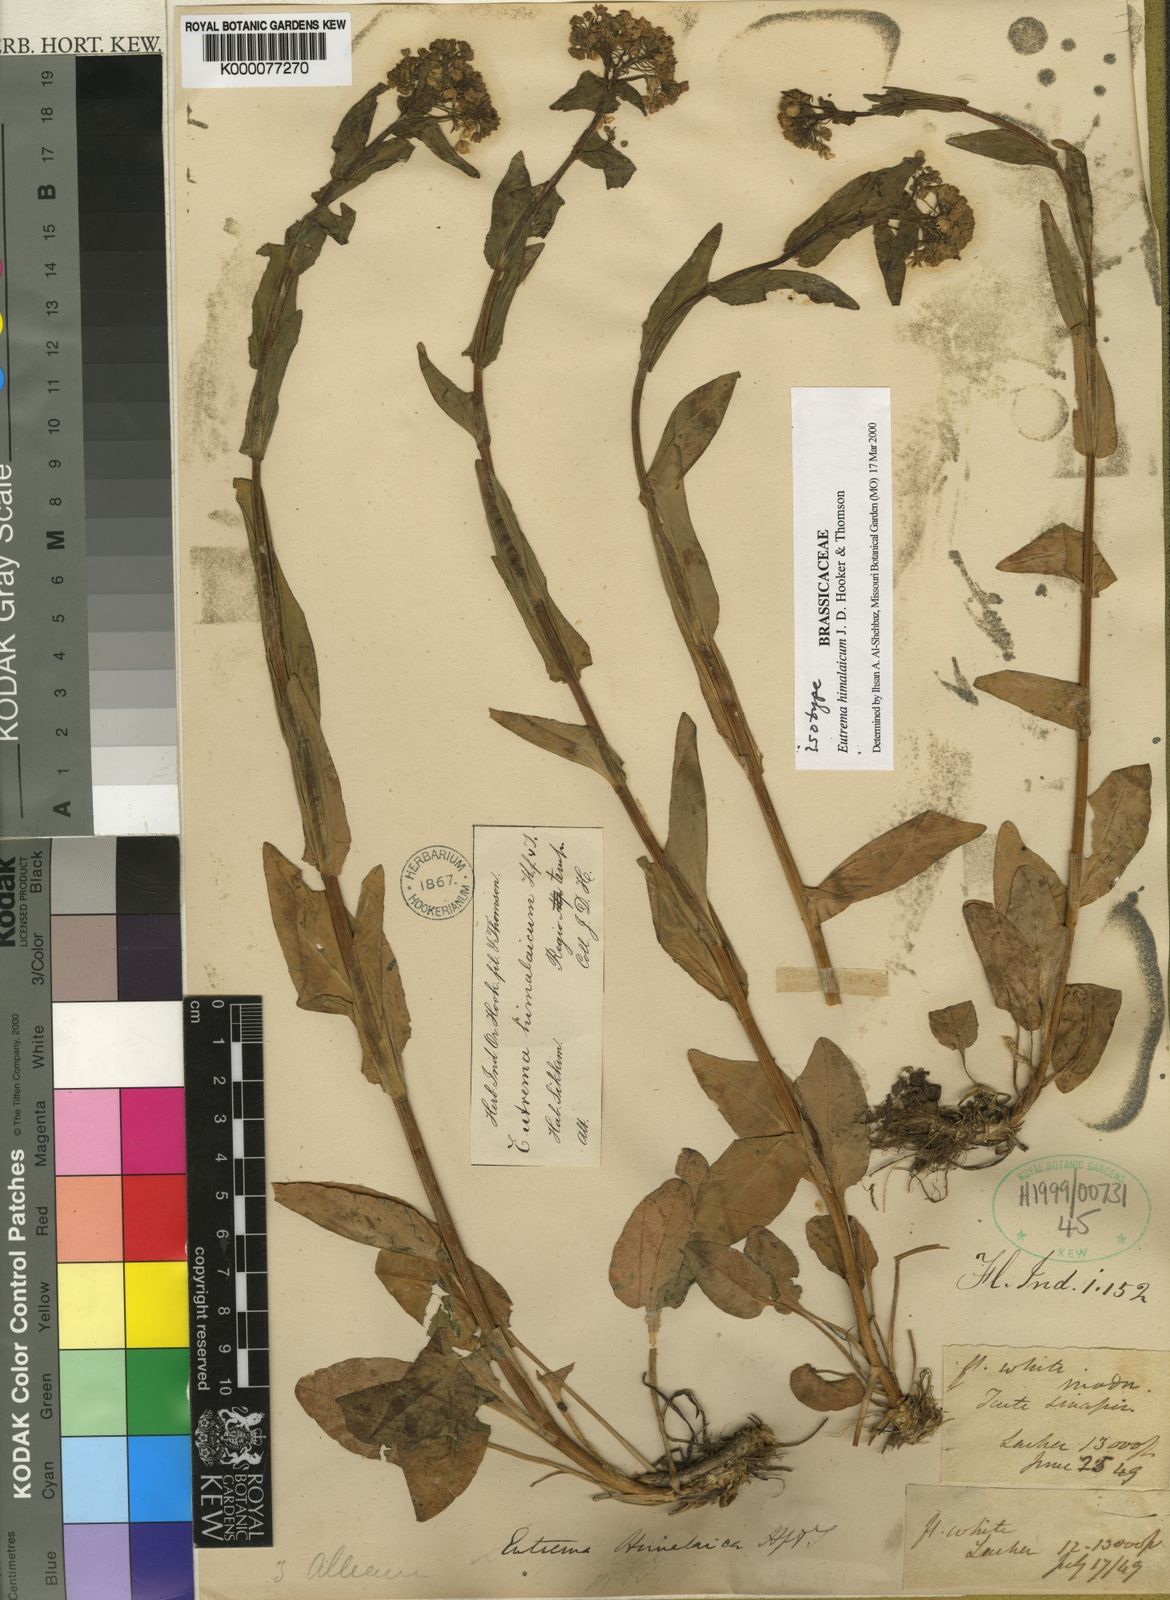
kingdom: Plantae
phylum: Tracheophyta
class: Magnoliopsida
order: Brassicales
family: Brassicaceae
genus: Eutrema
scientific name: Eutrema himalaicum
